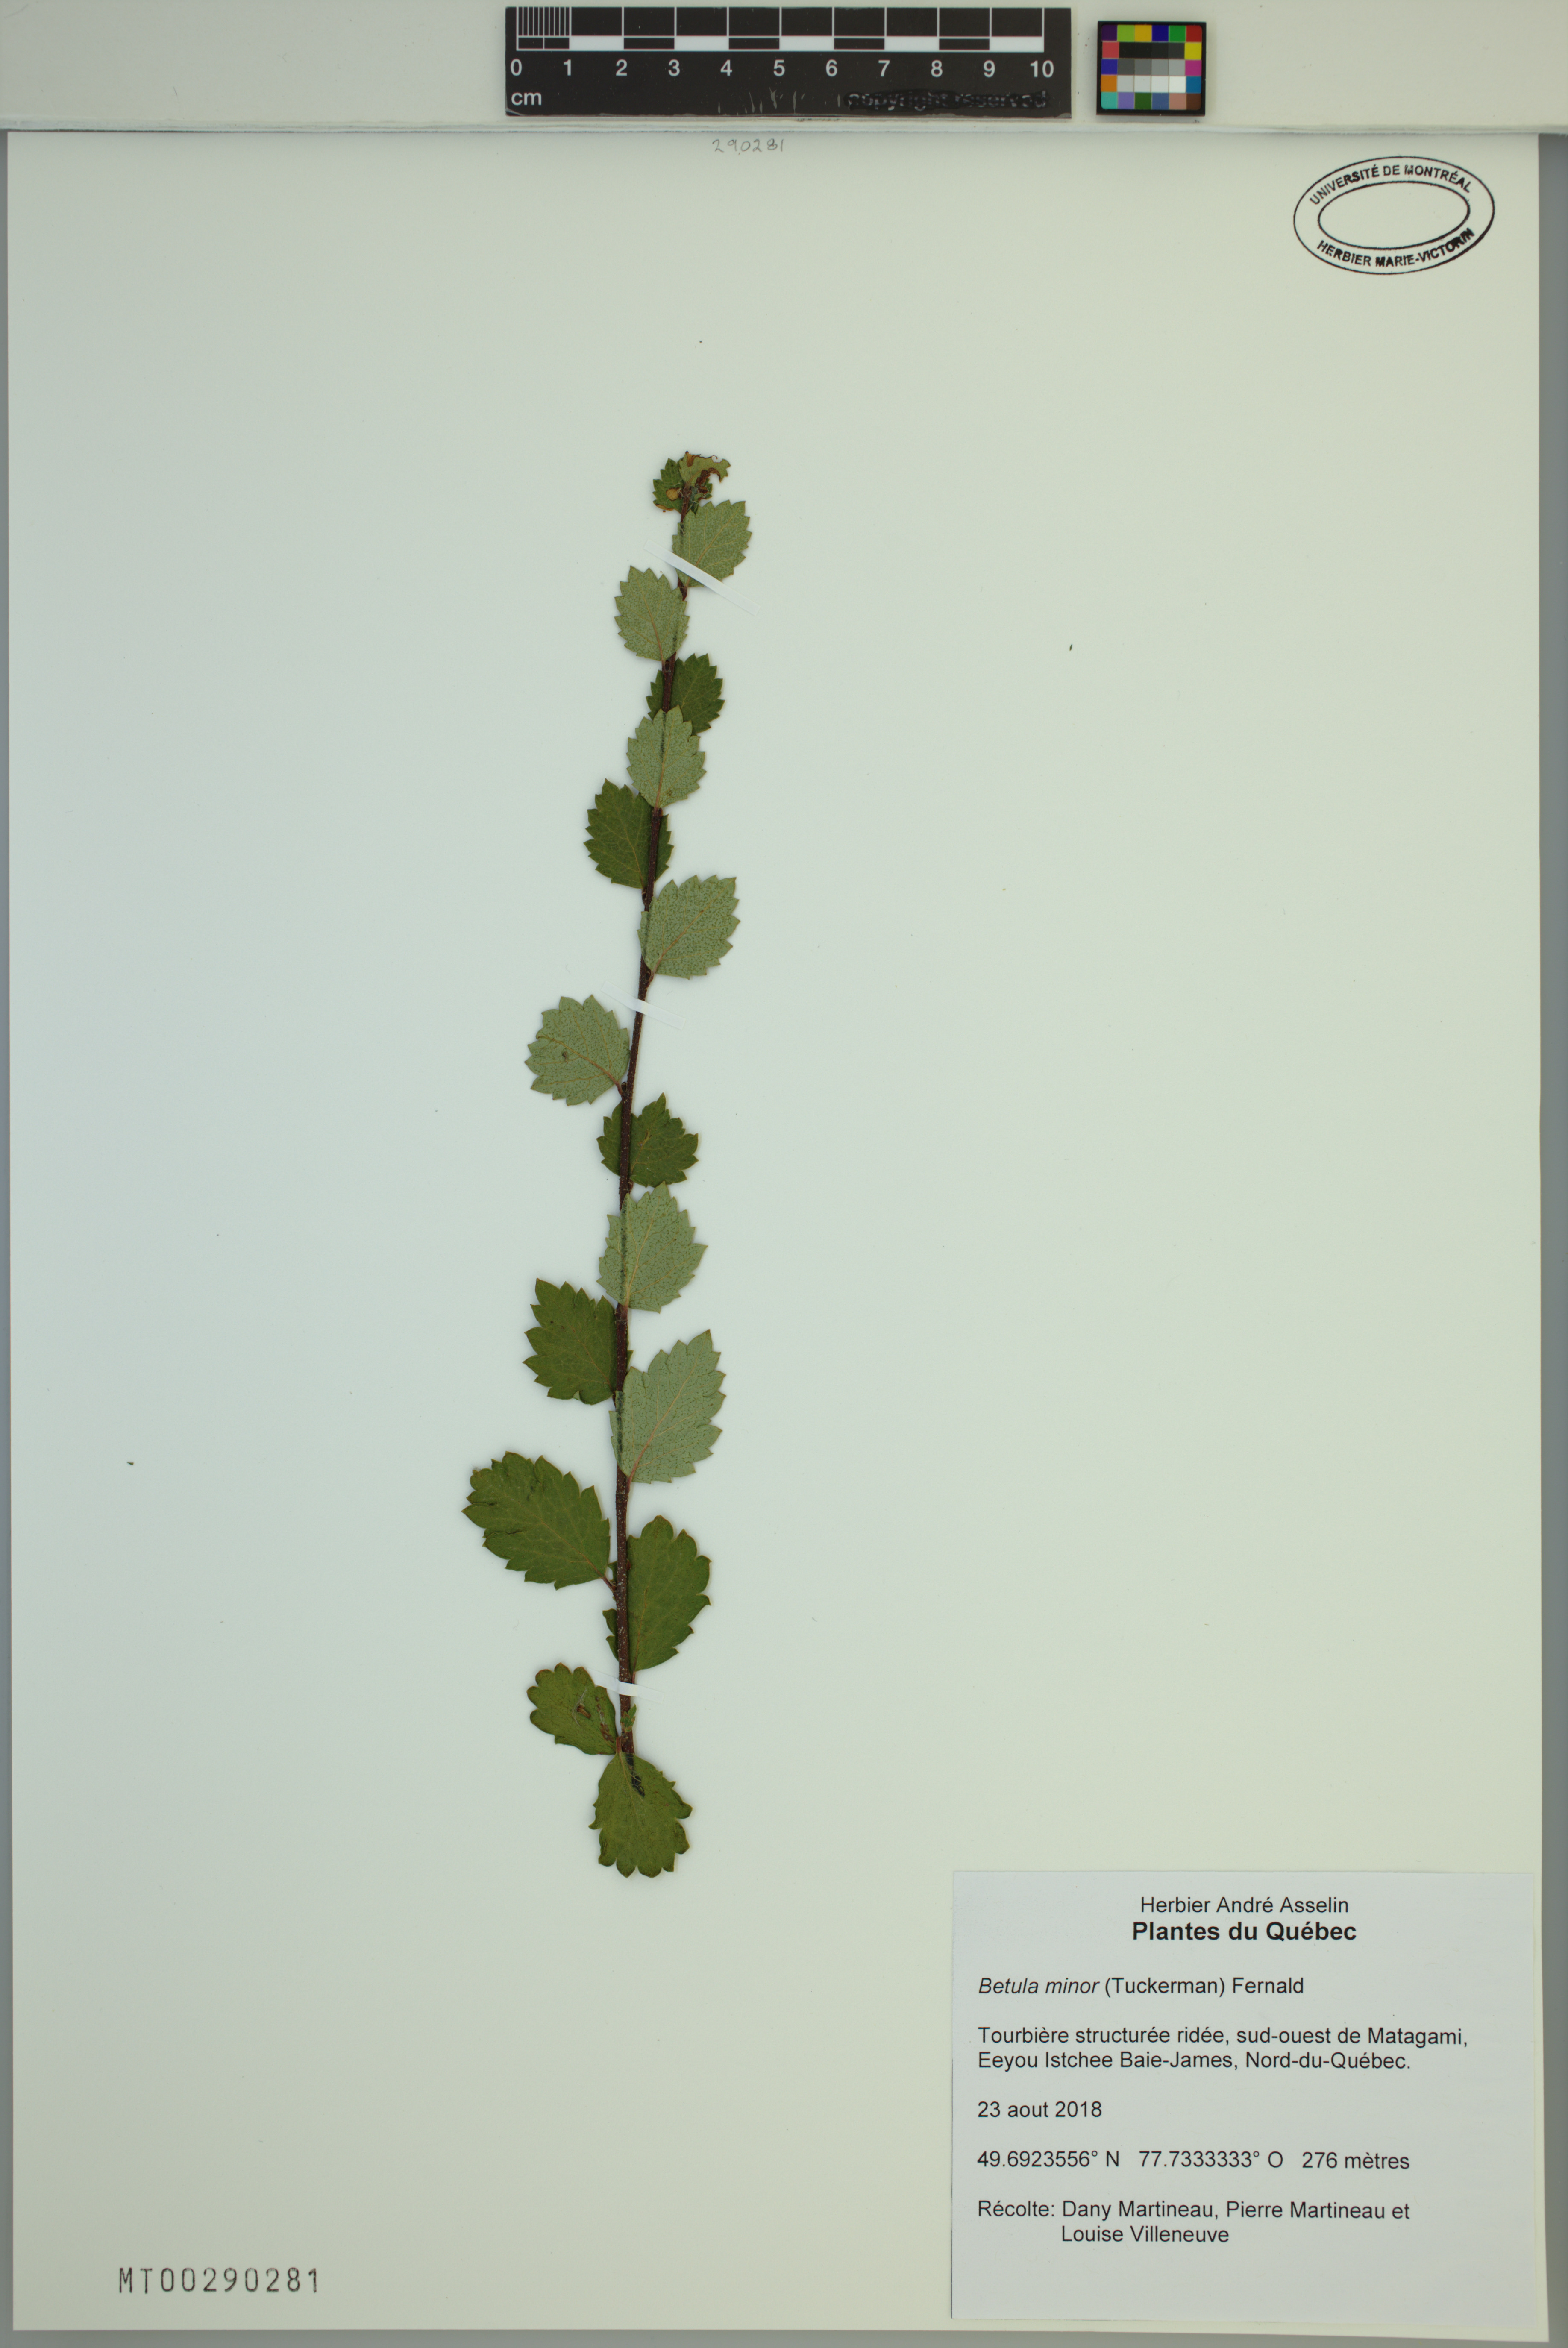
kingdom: Plantae
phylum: Tracheophyta
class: Magnoliopsida
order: Fagales
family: Betulaceae
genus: Betula
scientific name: Betula minor
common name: Dwarf birch
